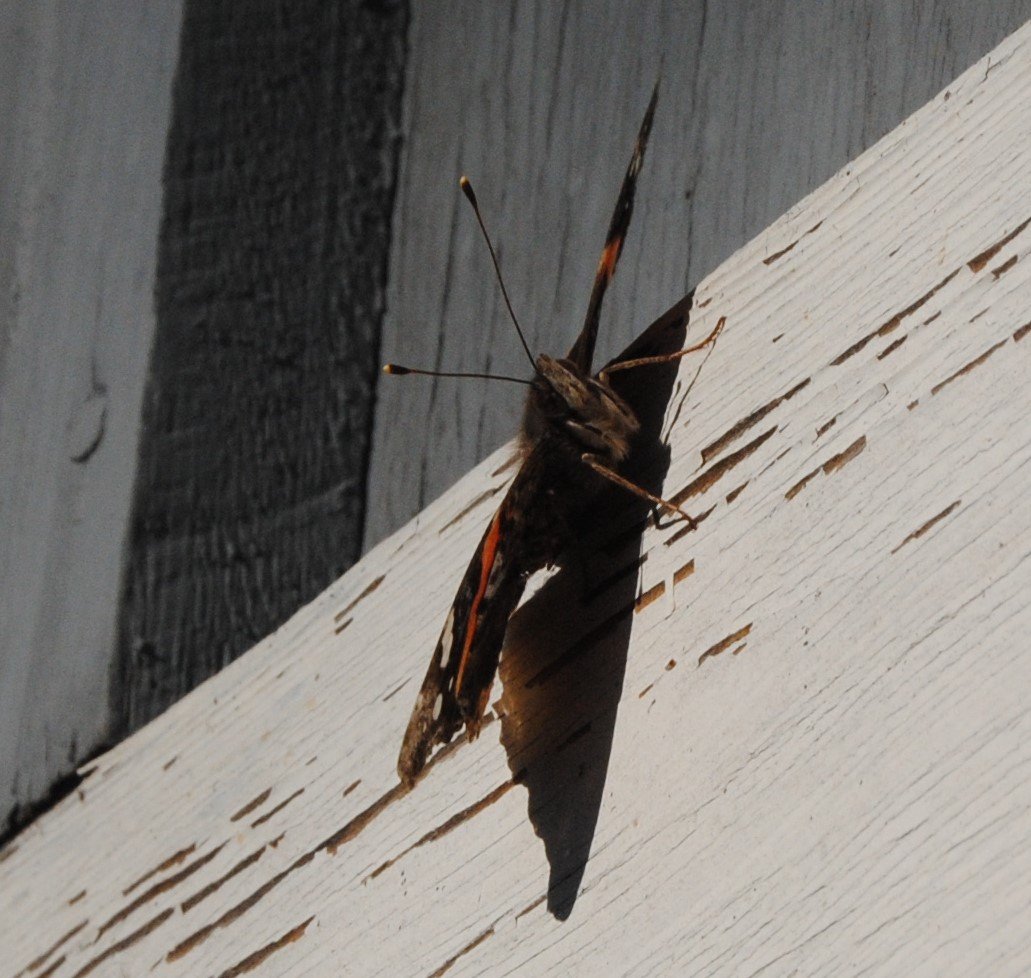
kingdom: Animalia
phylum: Arthropoda
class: Insecta
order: Lepidoptera
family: Nymphalidae
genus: Vanessa
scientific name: Vanessa atalanta
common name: Red Admiral
